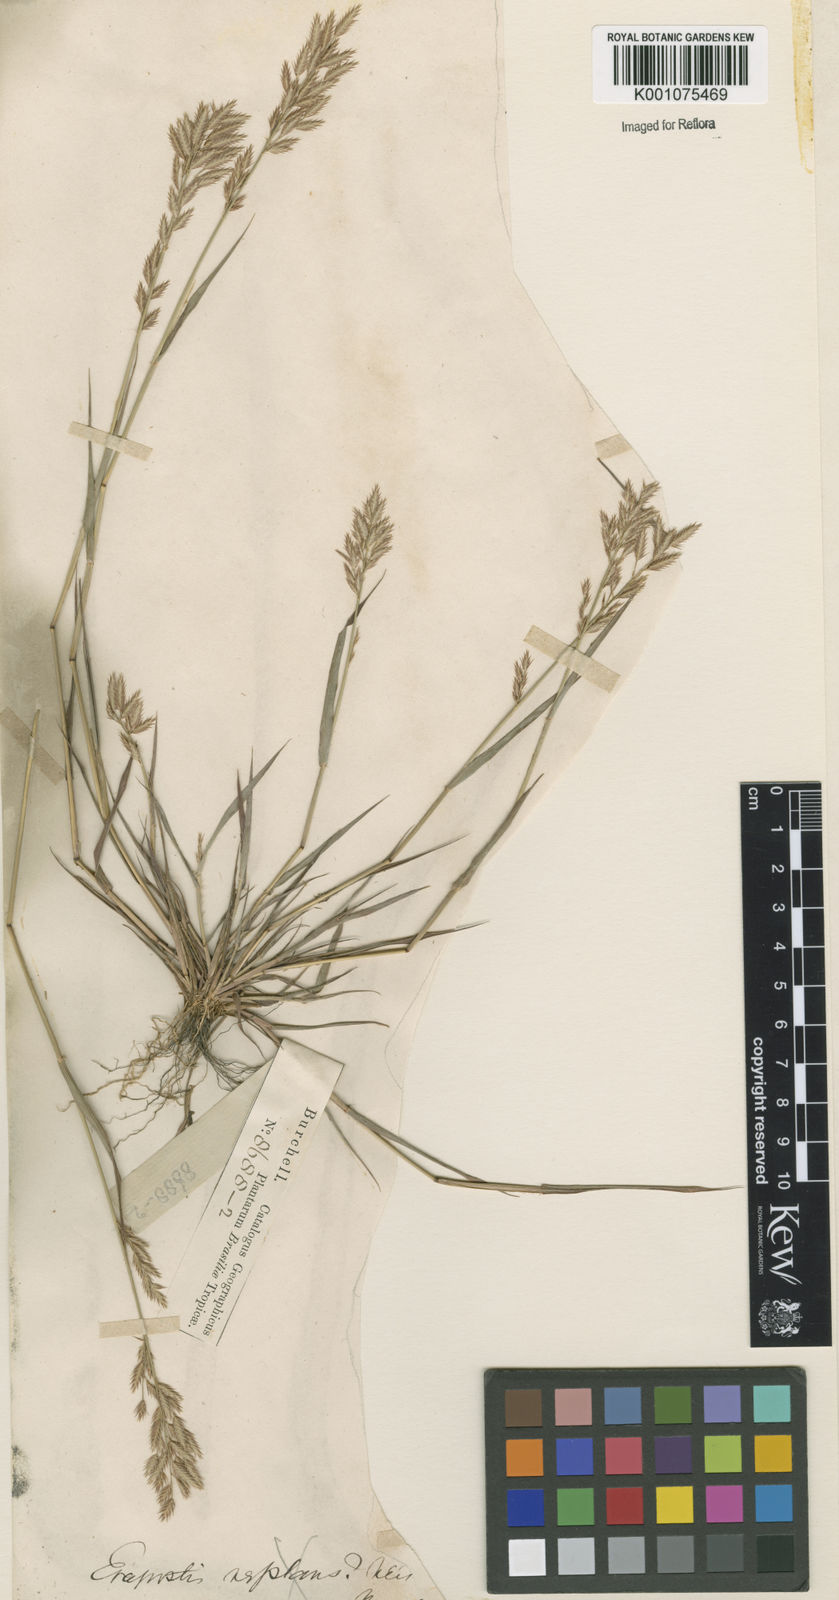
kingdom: Plantae
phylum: Tracheophyta
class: Liliopsida
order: Poales
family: Poaceae
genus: Eragrostis
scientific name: Eragrostis maypurensis
